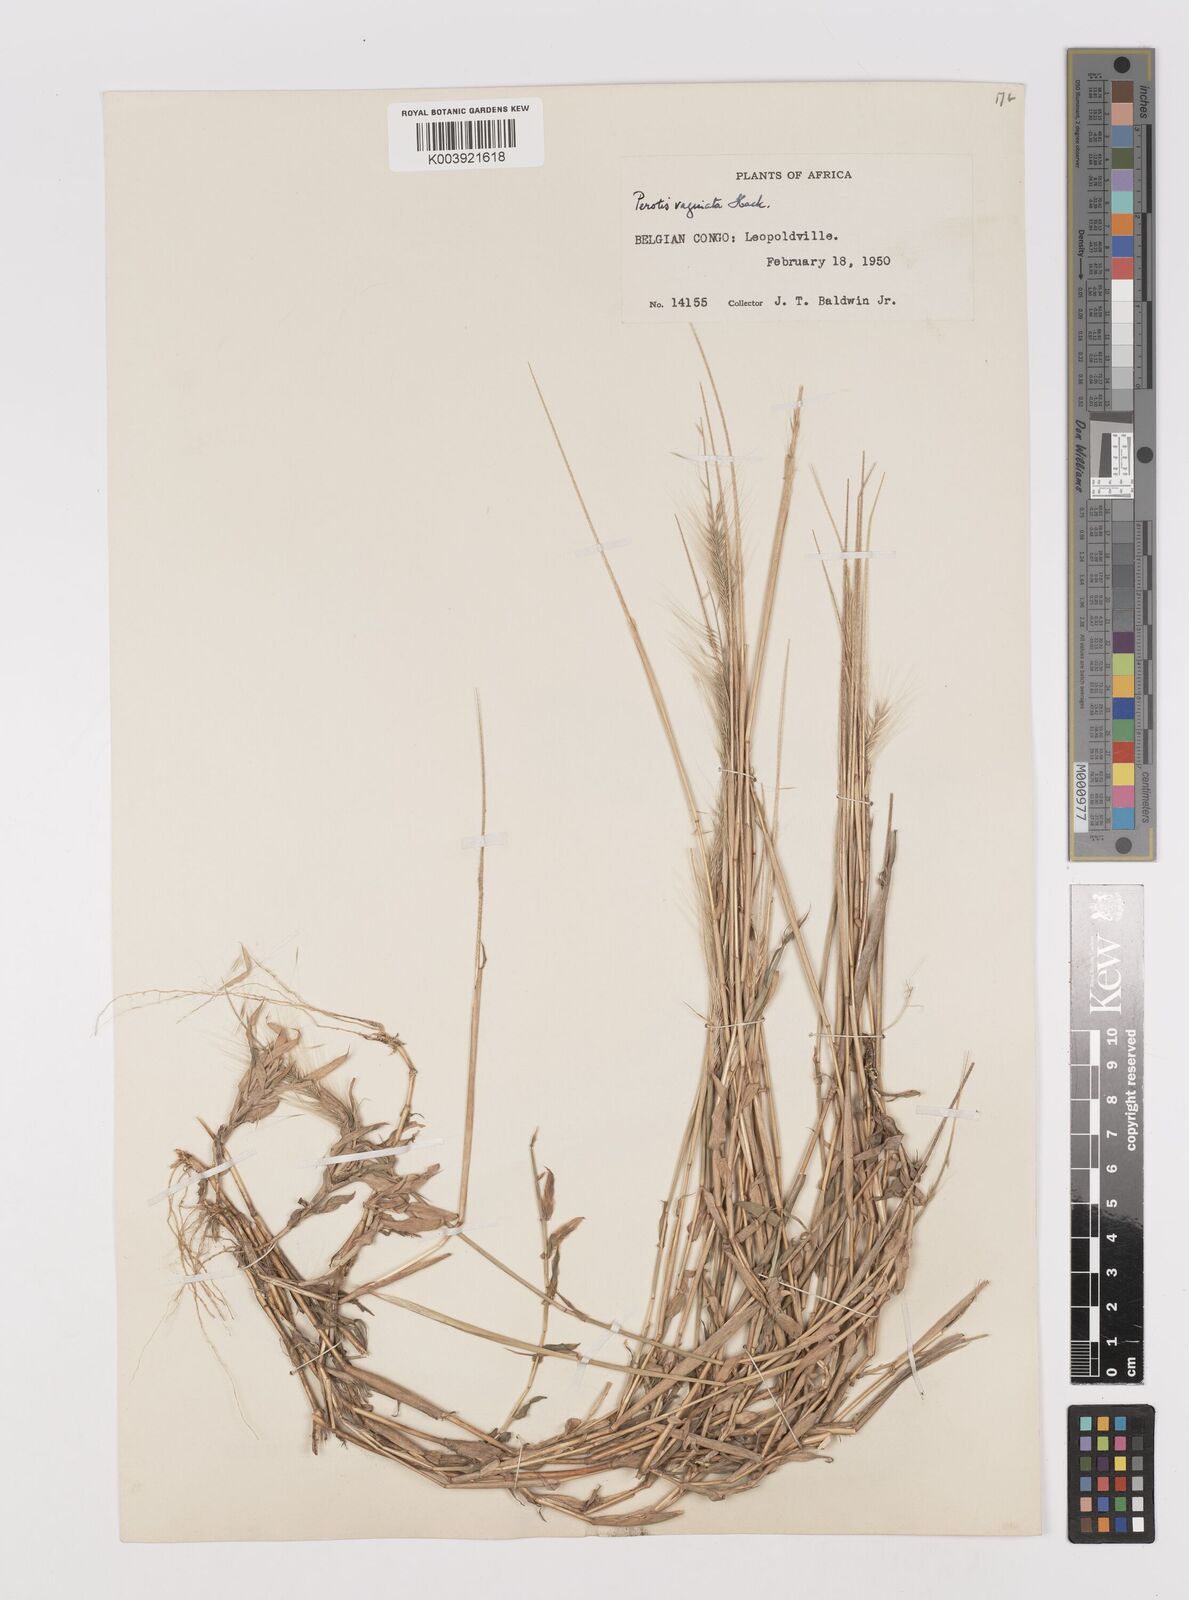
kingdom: Plantae
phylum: Tracheophyta
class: Liliopsida
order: Poales
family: Poaceae
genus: Perotis
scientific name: Perotis vaginata
